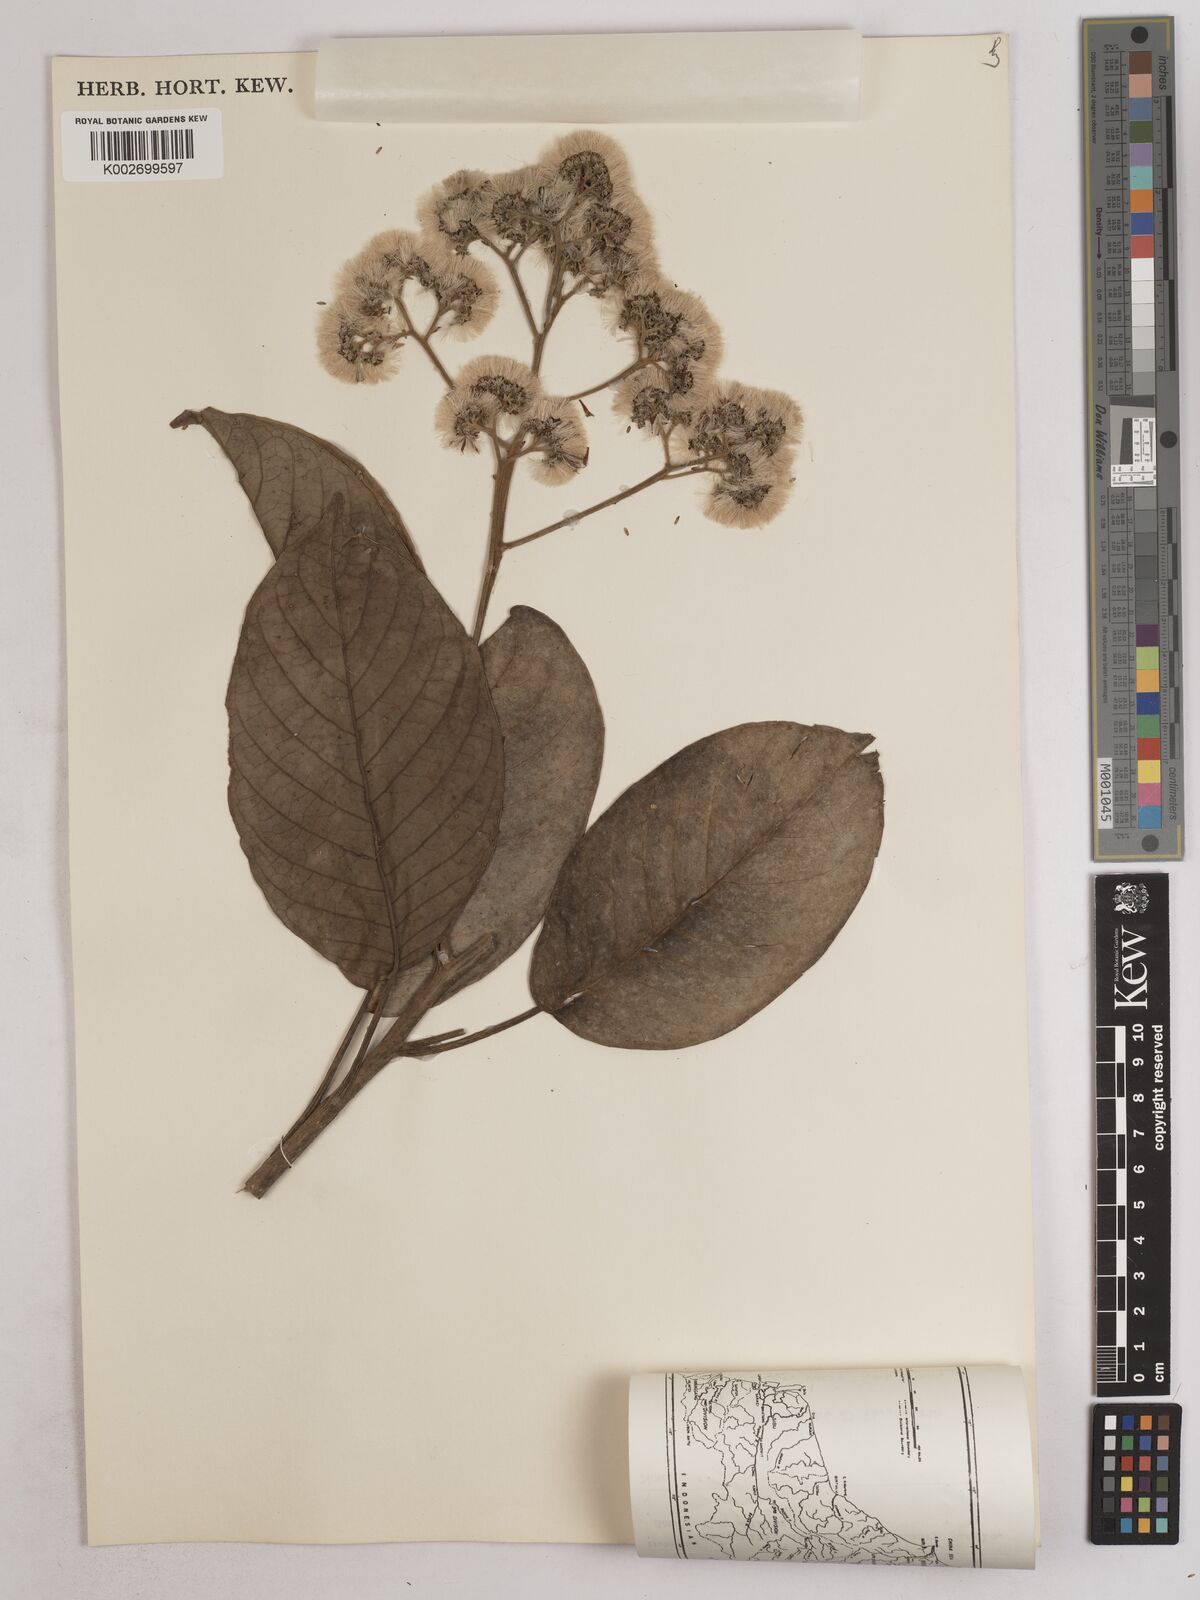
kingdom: Plantae
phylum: Tracheophyta
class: Magnoliopsida
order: Asterales
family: Asteraceae
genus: Strobocalyx
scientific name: Strobocalyx arborea
